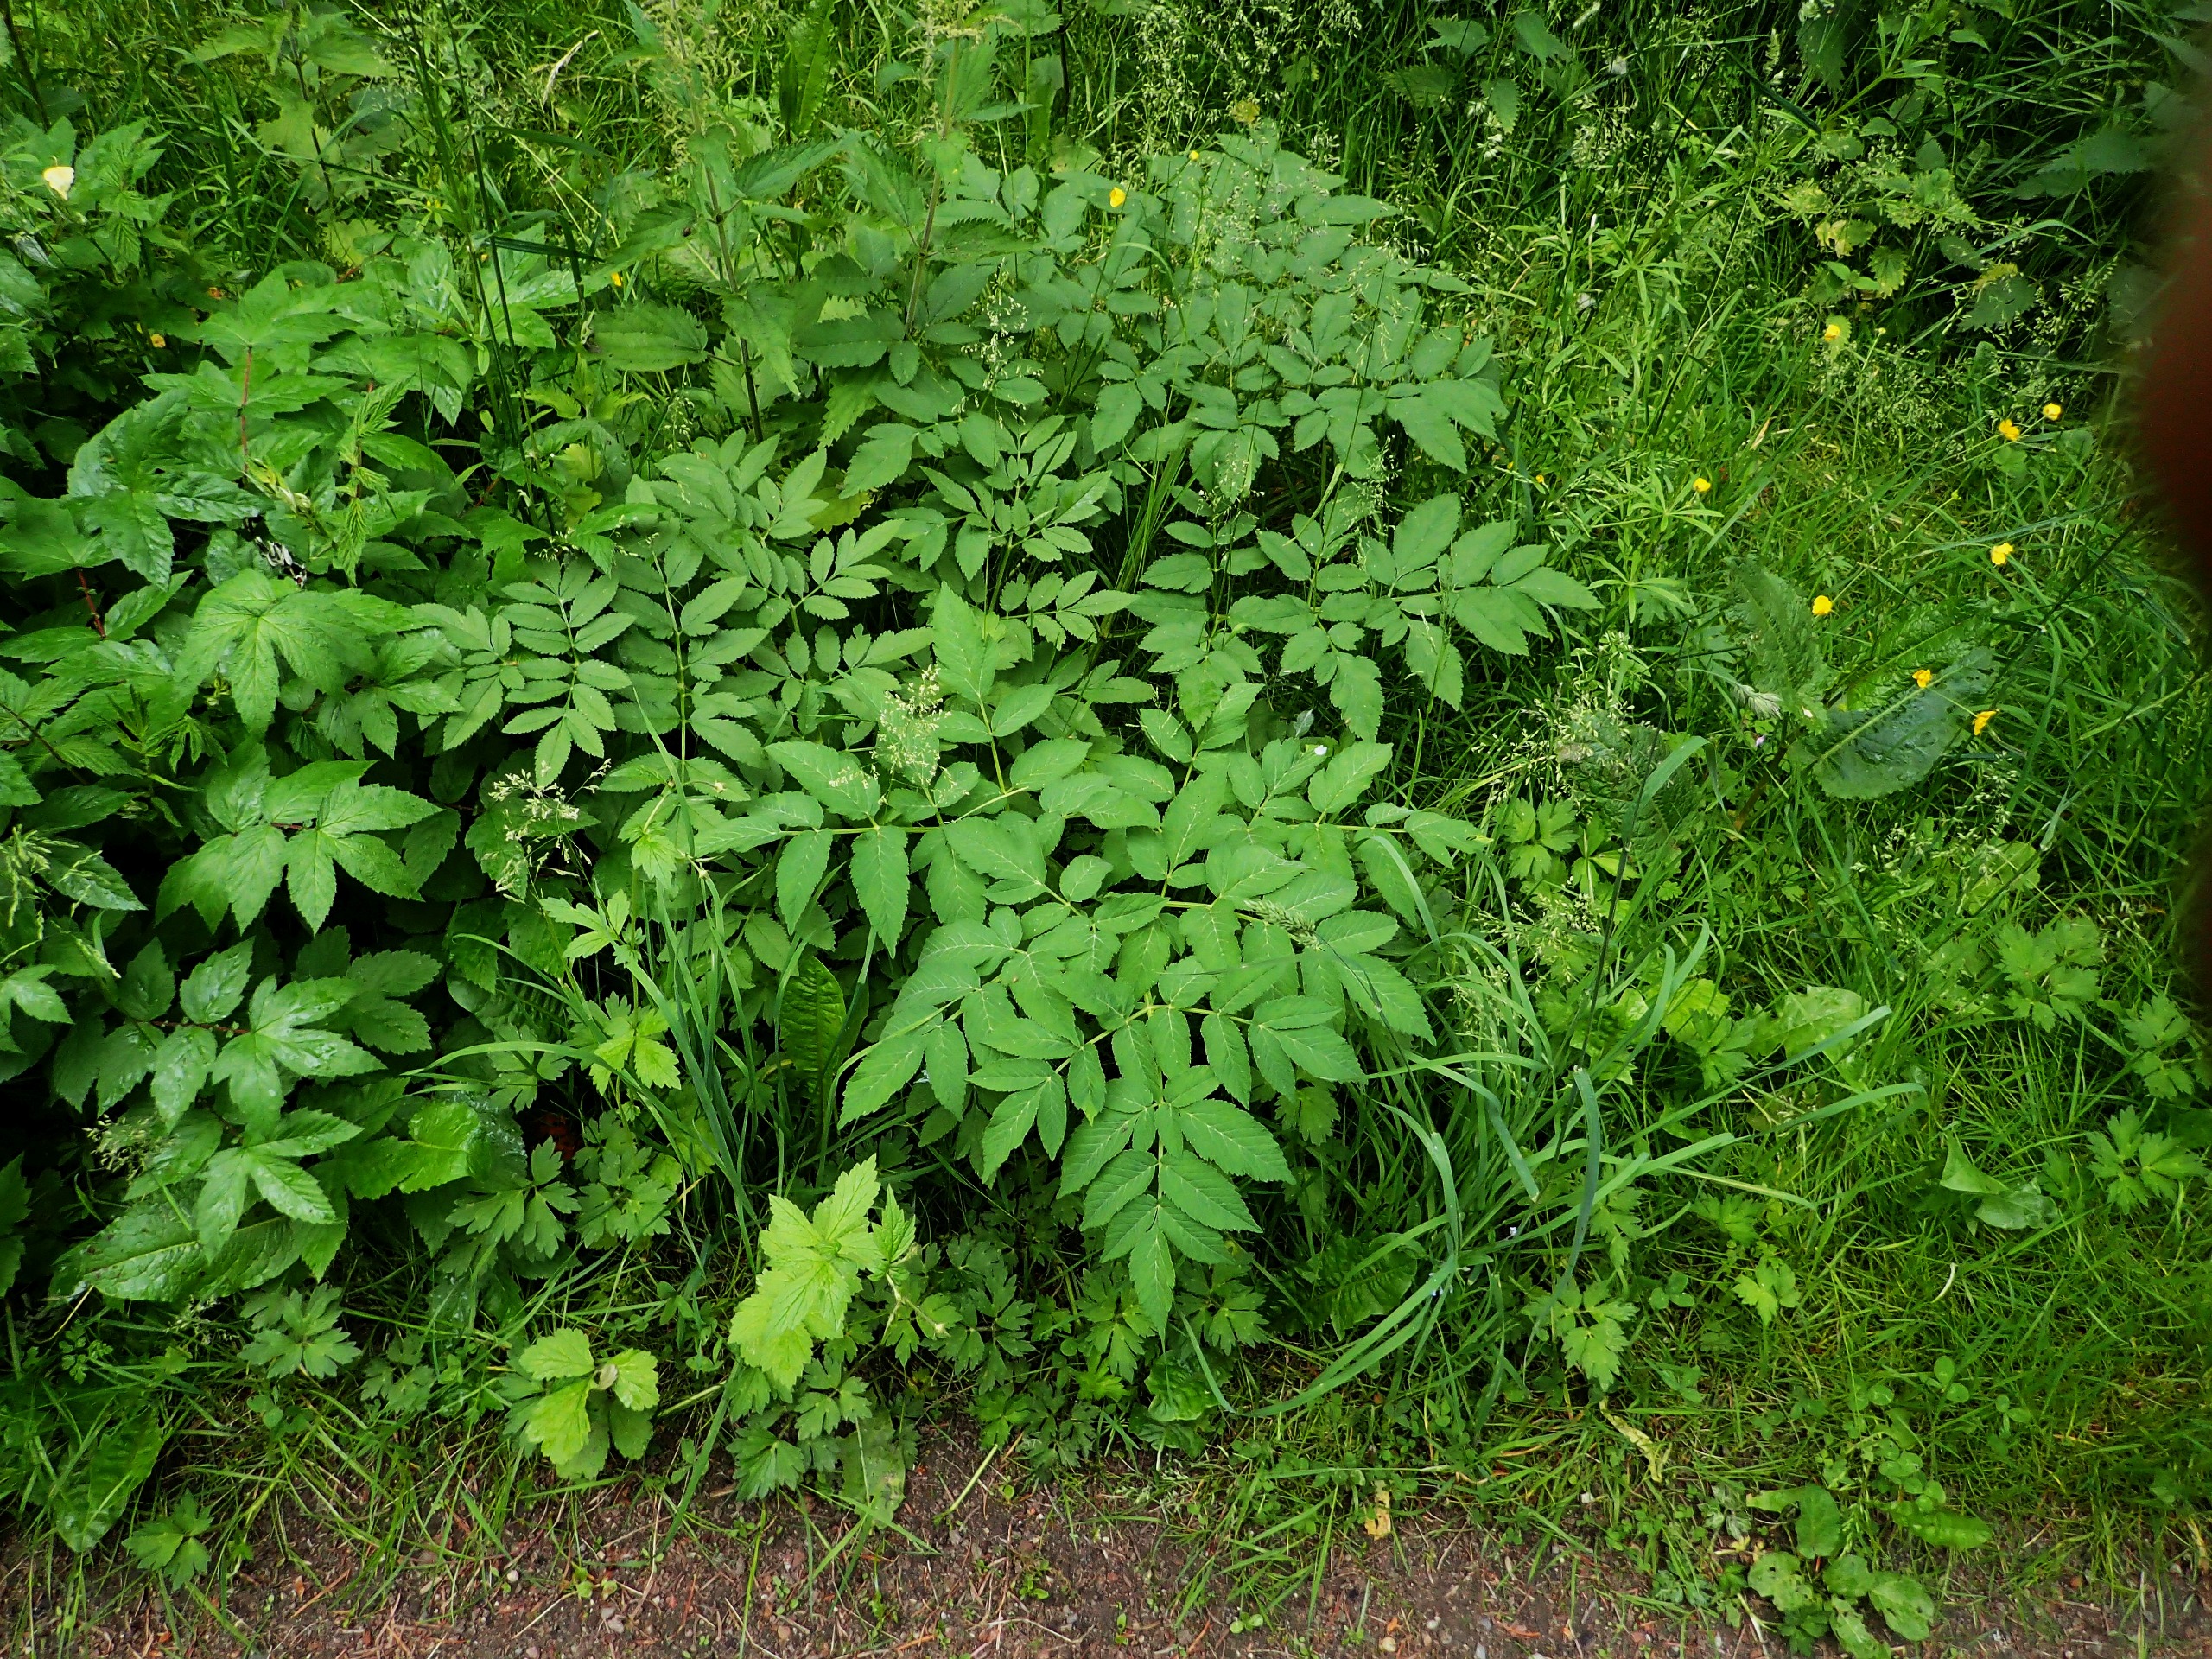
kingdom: Plantae
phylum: Tracheophyta
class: Magnoliopsida
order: Apiales
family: Apiaceae
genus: Angelica
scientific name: Angelica sylvestris
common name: Angelik
